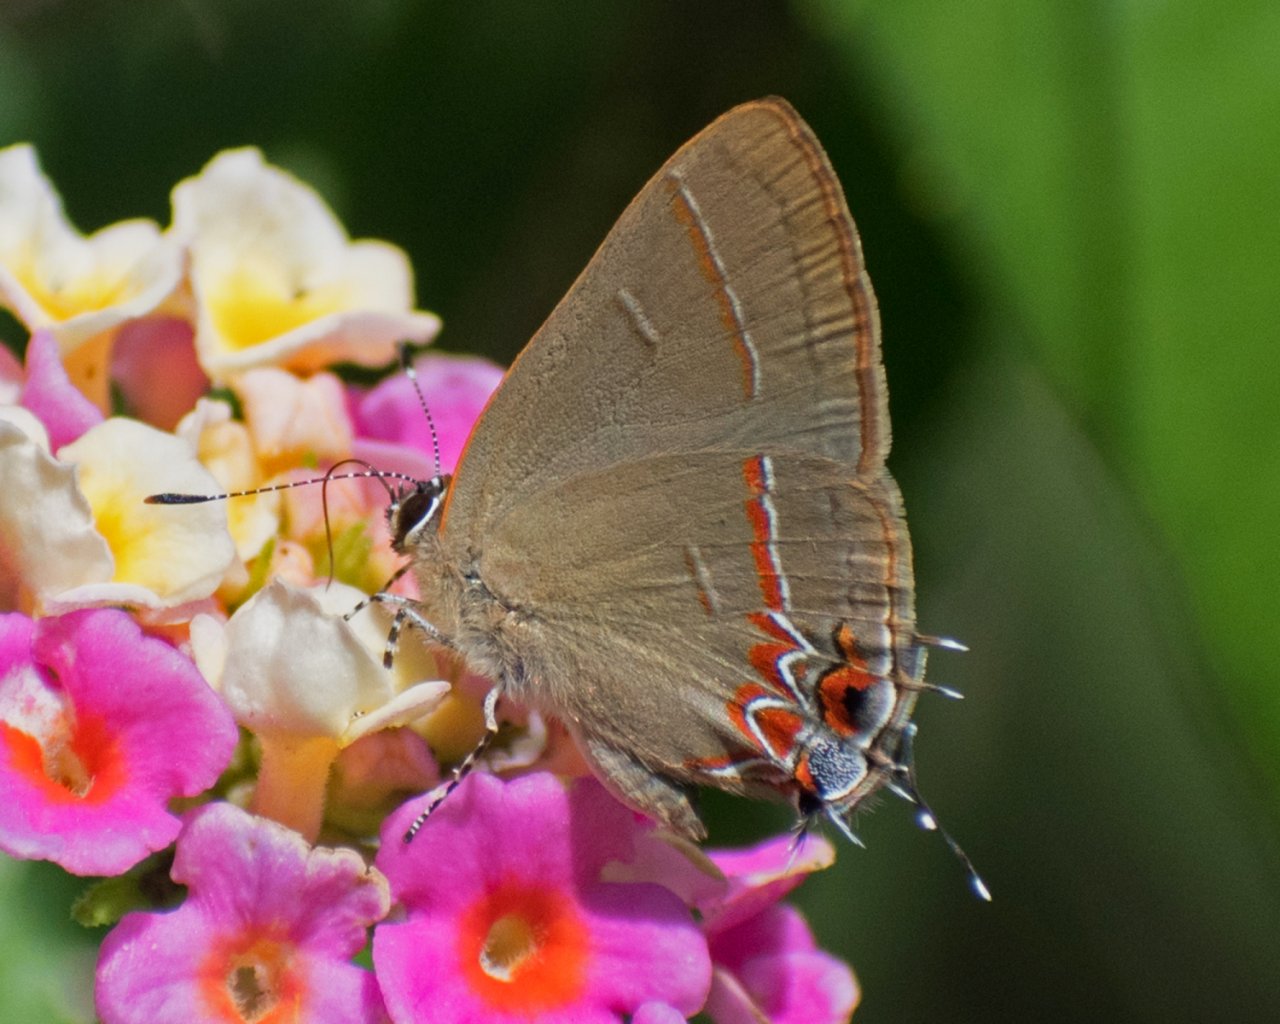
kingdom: Animalia
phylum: Arthropoda
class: Insecta
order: Lepidoptera
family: Lycaenidae
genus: Calycopis
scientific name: Calycopis drusilla
